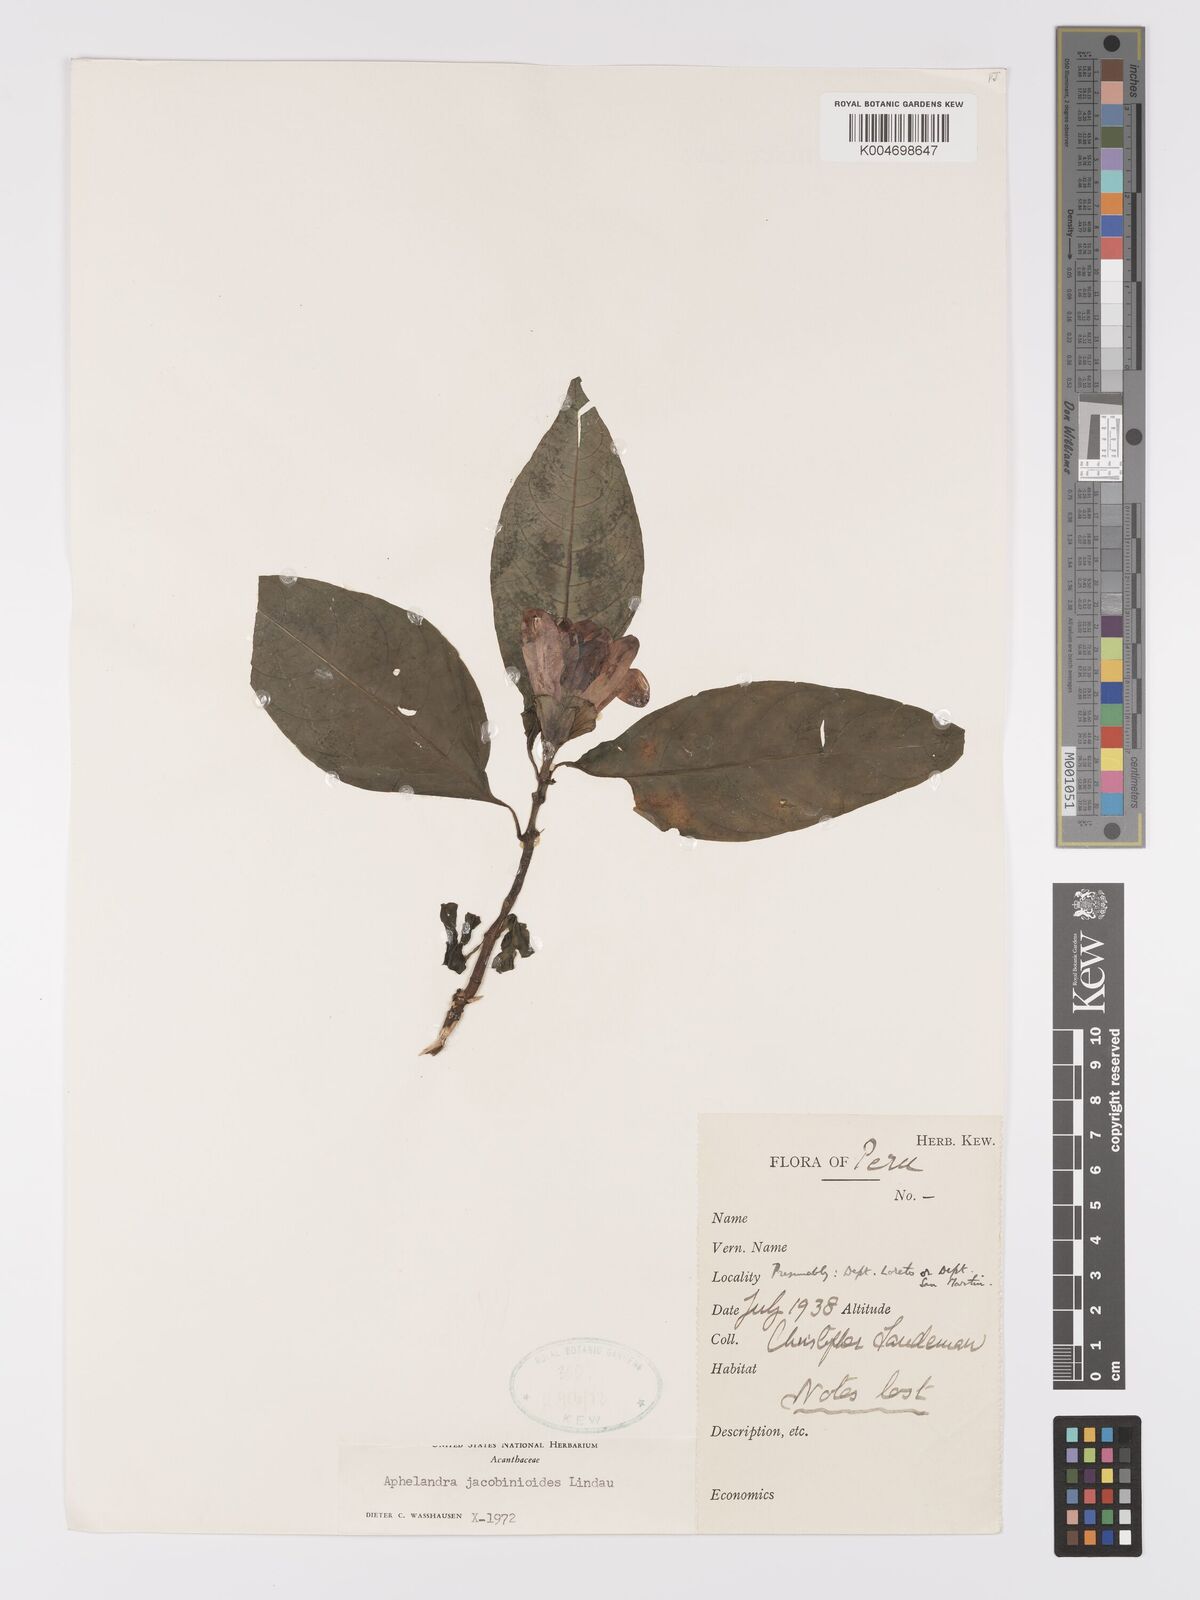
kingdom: Plantae
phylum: Tracheophyta
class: Magnoliopsida
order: Lamiales
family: Acanthaceae
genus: Aphelandra
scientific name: Aphelandra jacobinioides
